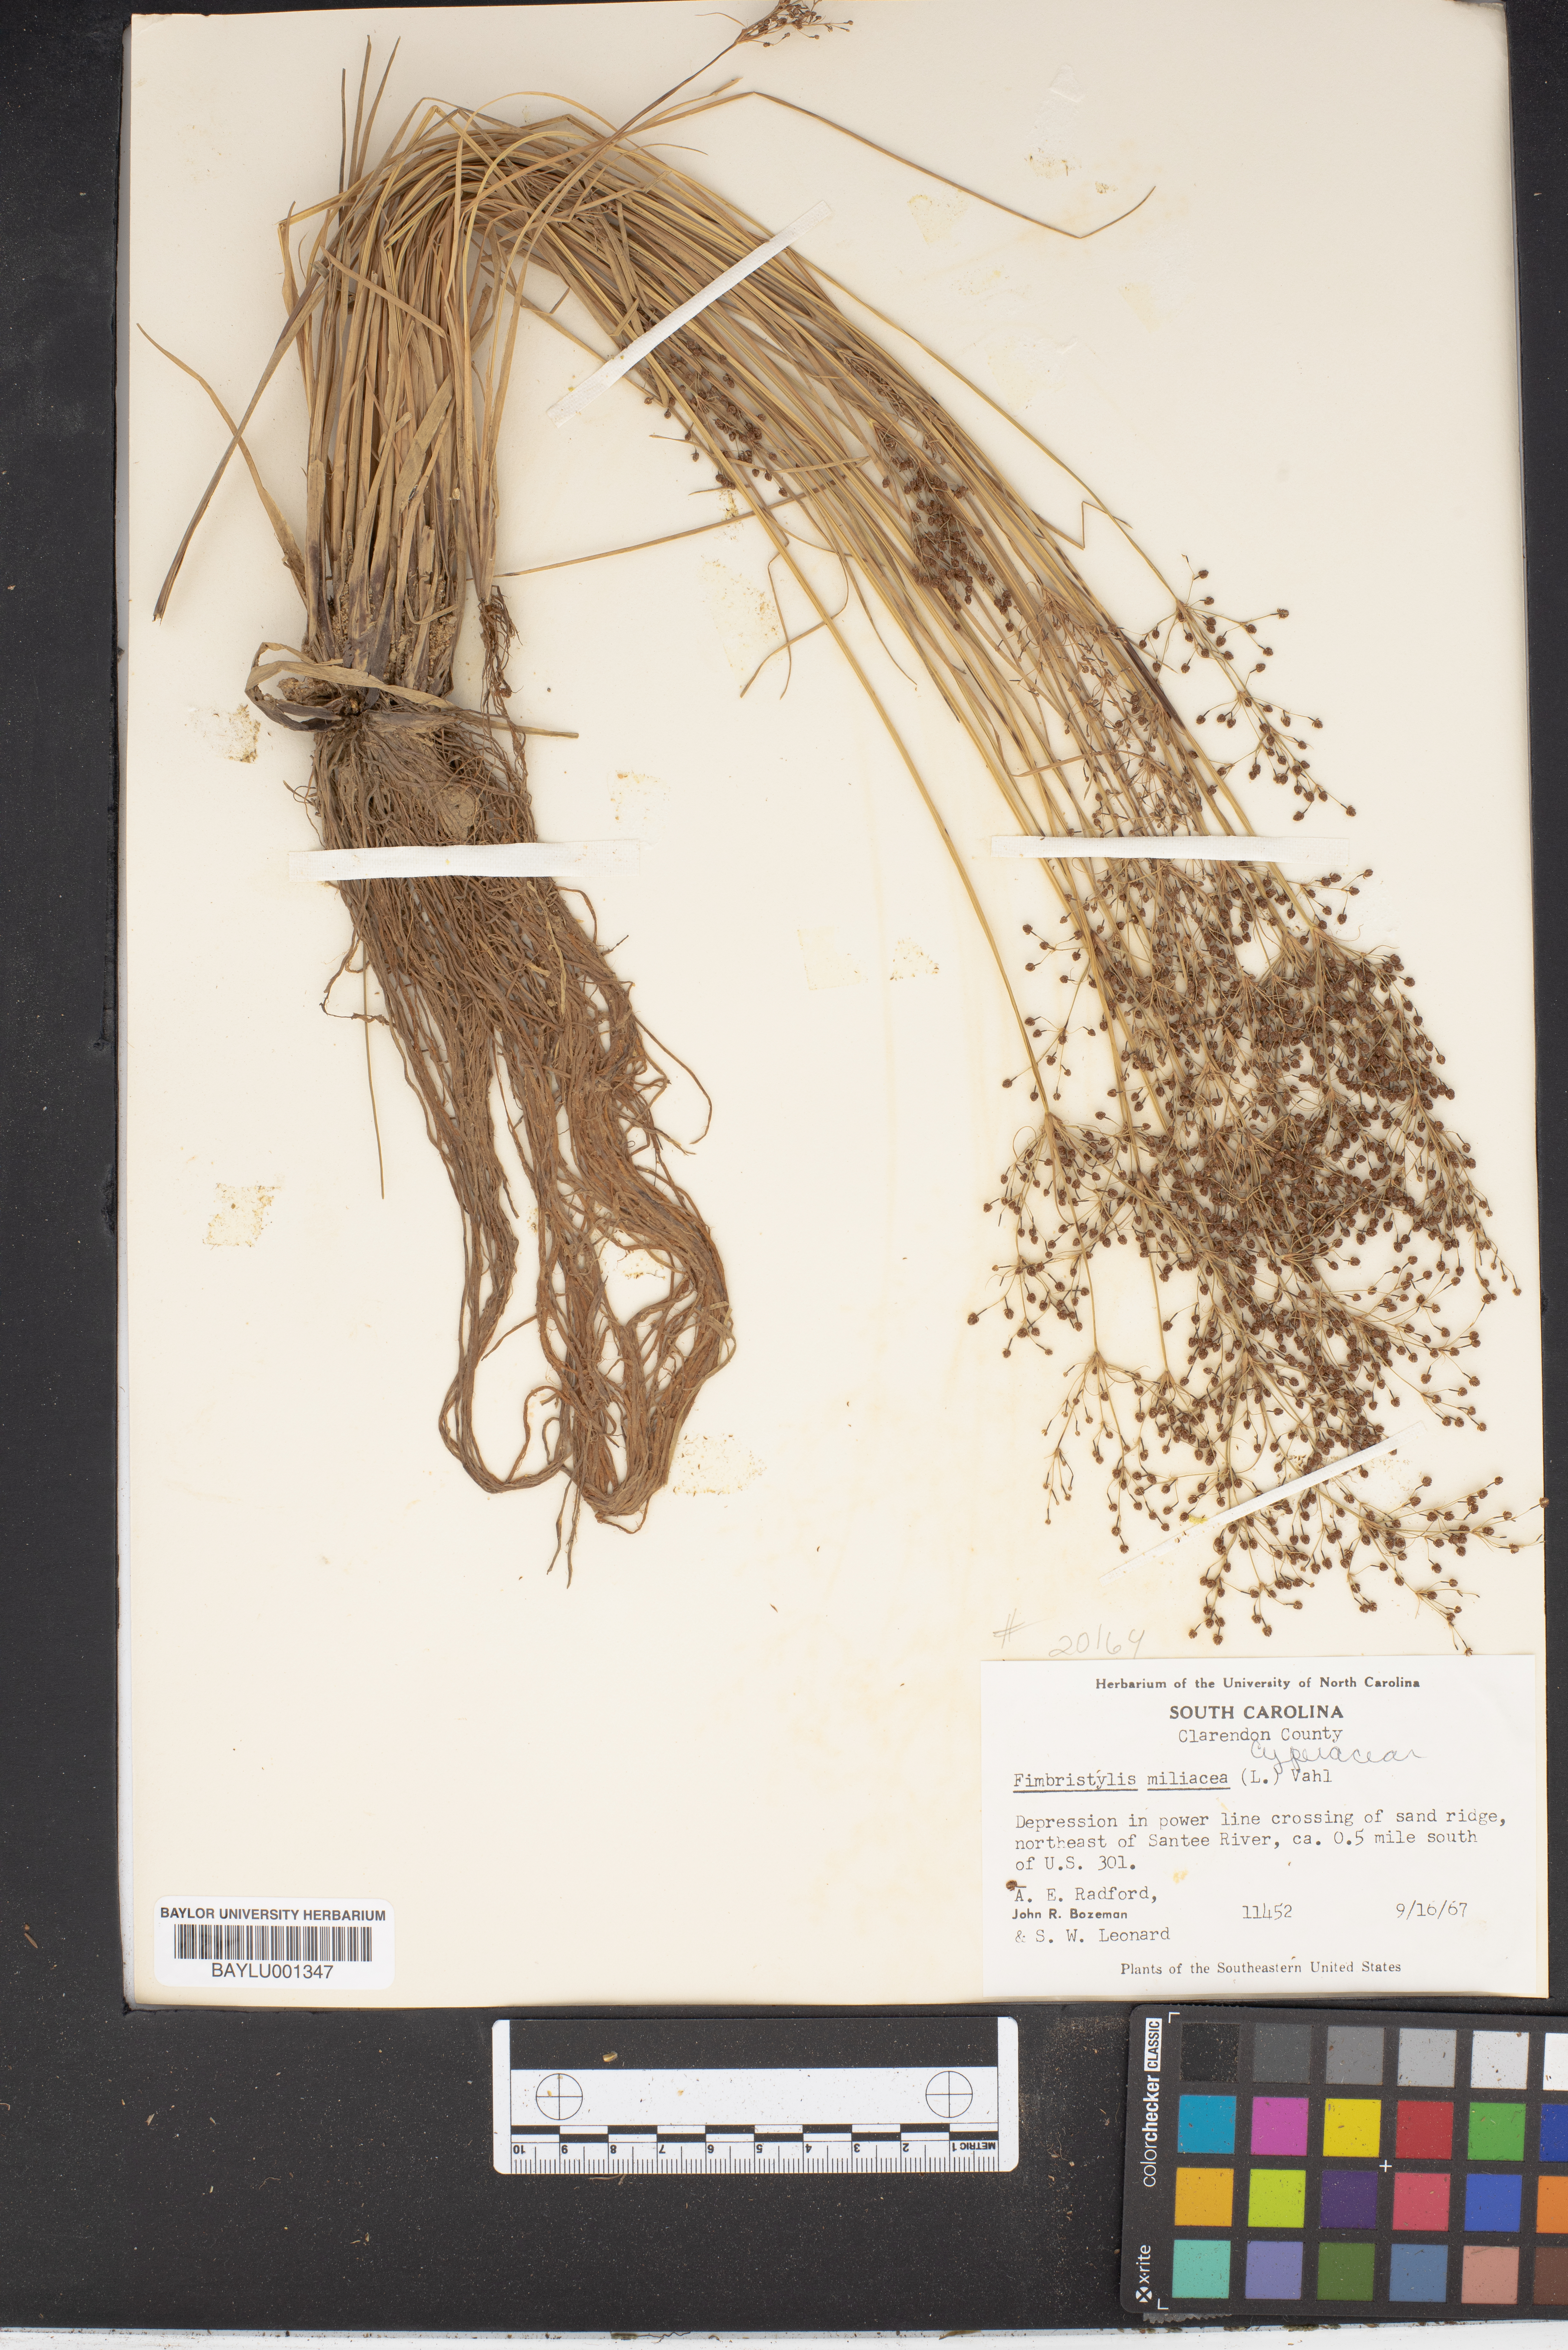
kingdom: Plantae
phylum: Tracheophyta
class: Liliopsida
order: Poales
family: Cyperaceae
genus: Fimbristylis
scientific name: Fimbristylis quinquangularis
